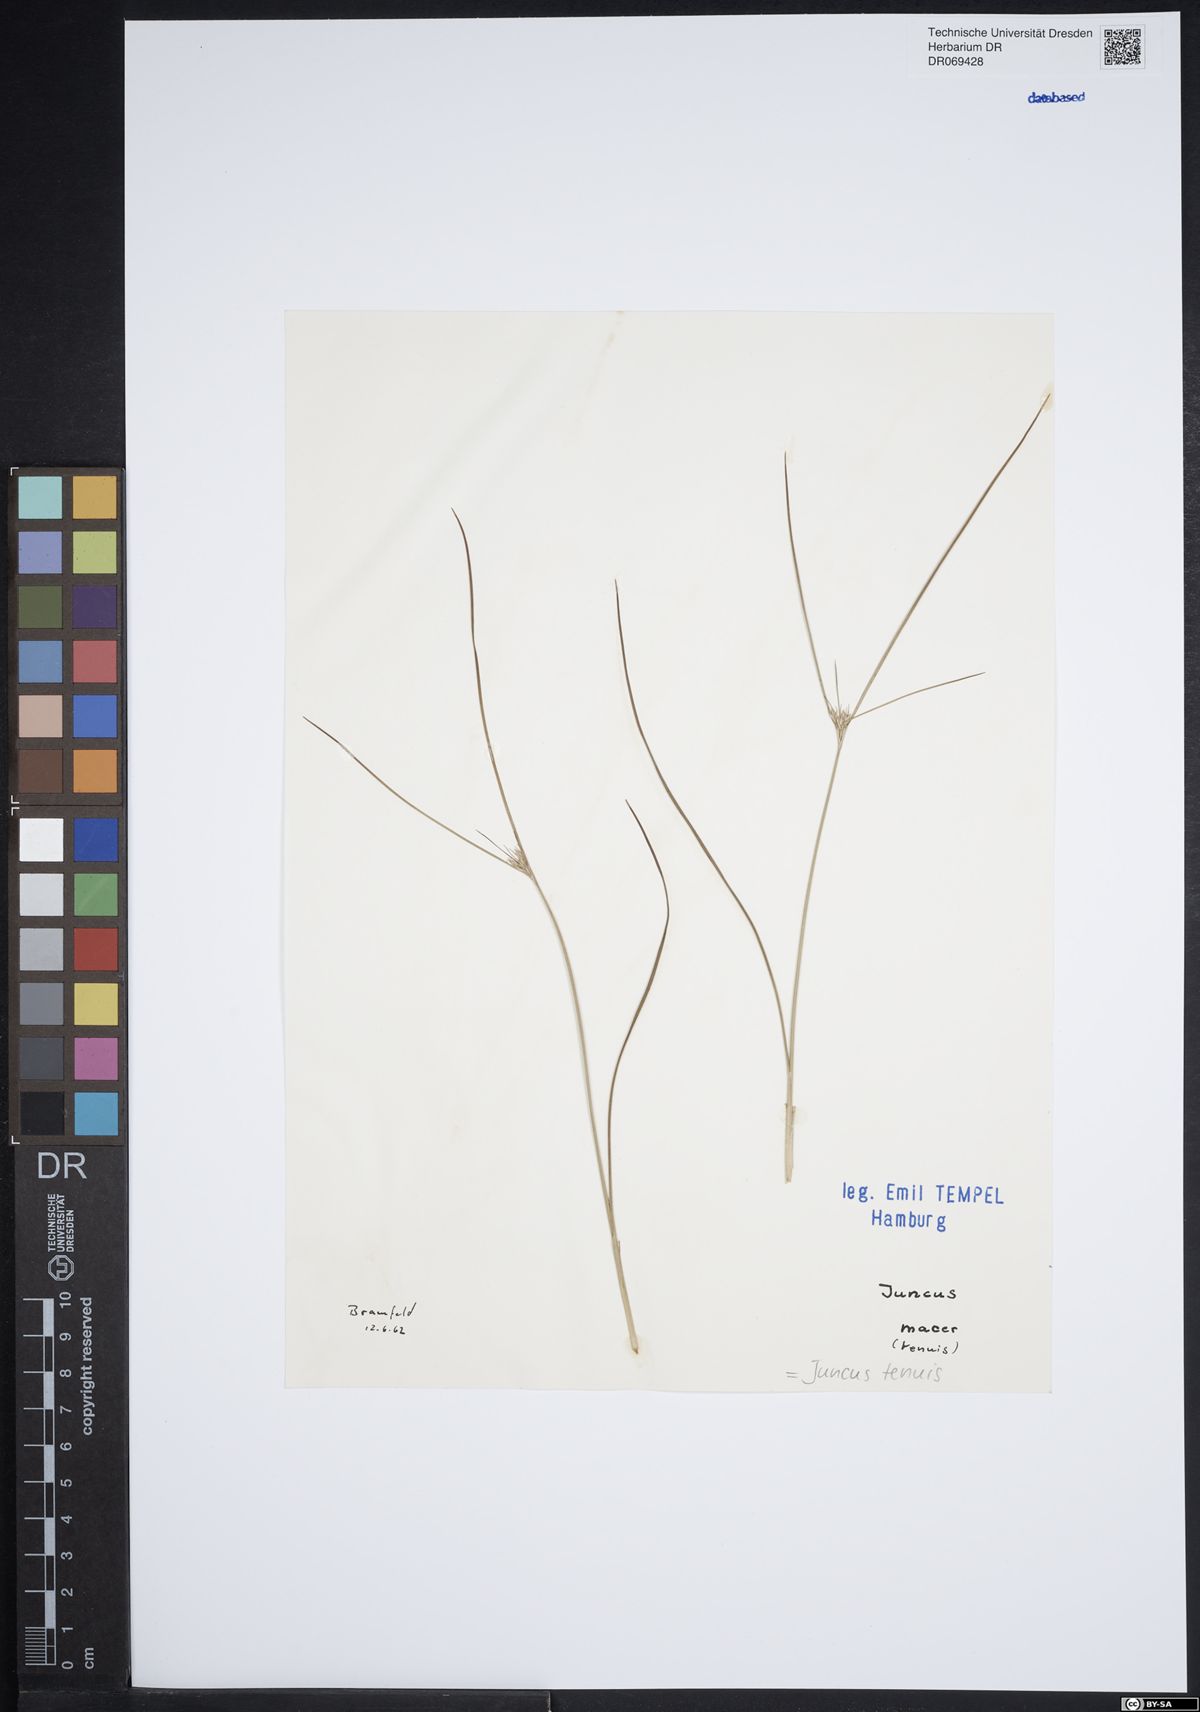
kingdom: Plantae
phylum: Tracheophyta
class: Liliopsida
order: Poales
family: Juncaceae
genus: Juncus
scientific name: Juncus tenuis
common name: Slender rush
